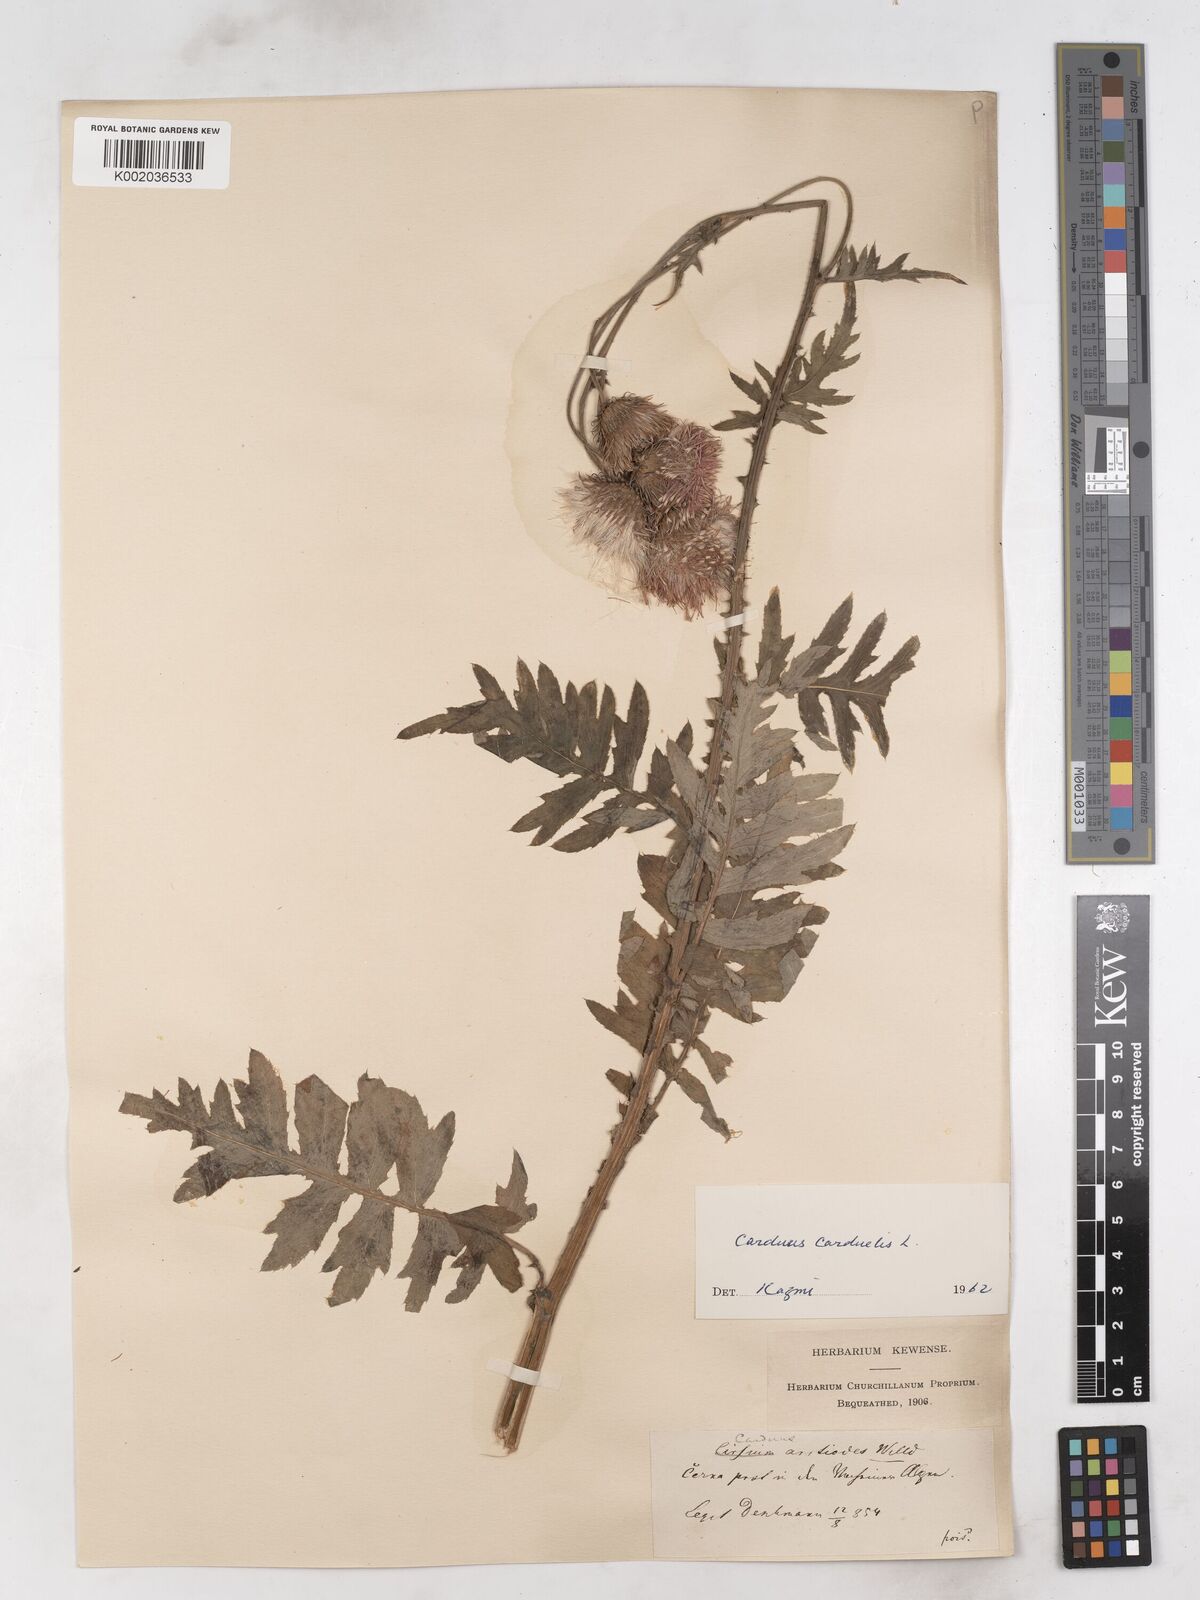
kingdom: Plantae
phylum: Tracheophyta
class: Magnoliopsida
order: Asterales
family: Asteraceae
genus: Carduus
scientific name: Carduus carduelis
